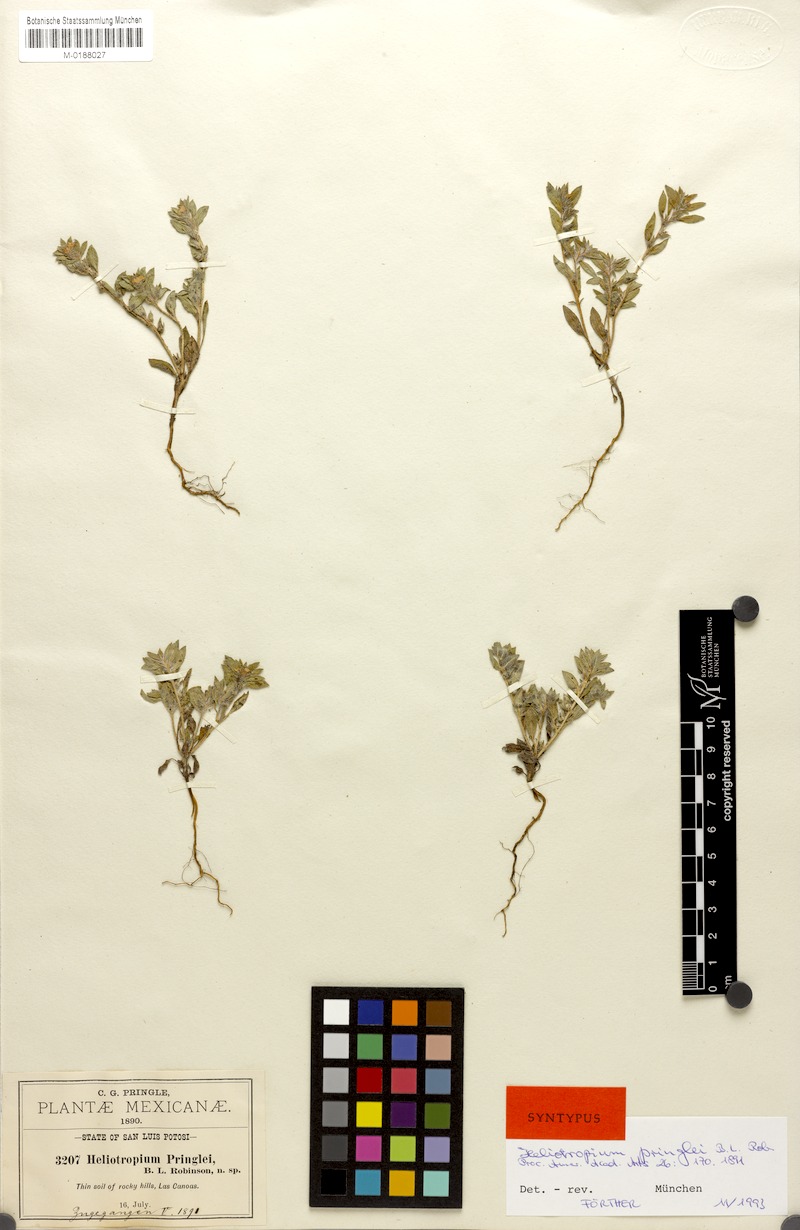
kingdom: Plantae
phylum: Tracheophyta
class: Magnoliopsida
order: Boraginales
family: Heliotropiaceae
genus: Euploca
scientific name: Euploca pringlei
